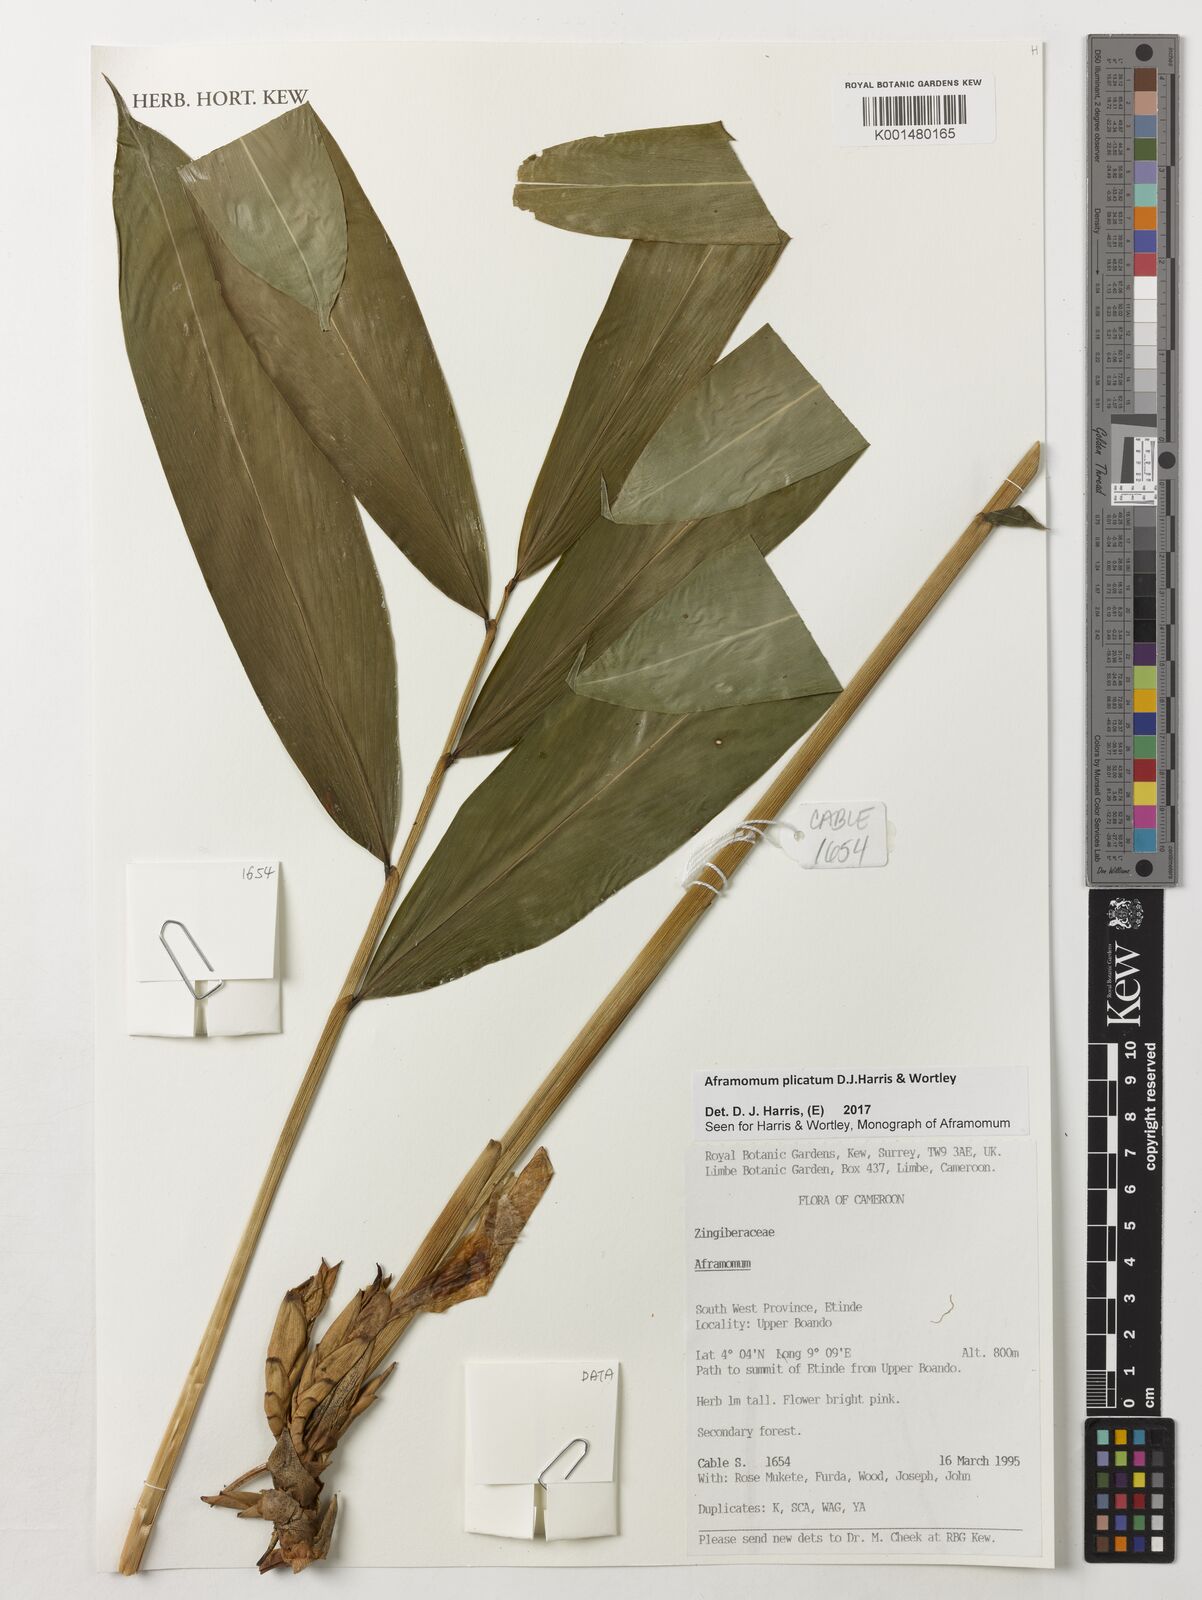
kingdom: Plantae
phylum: Tracheophyta
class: Liliopsida
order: Zingiberales
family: Zingiberaceae
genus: Aframomum
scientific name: Aframomum plicatum
